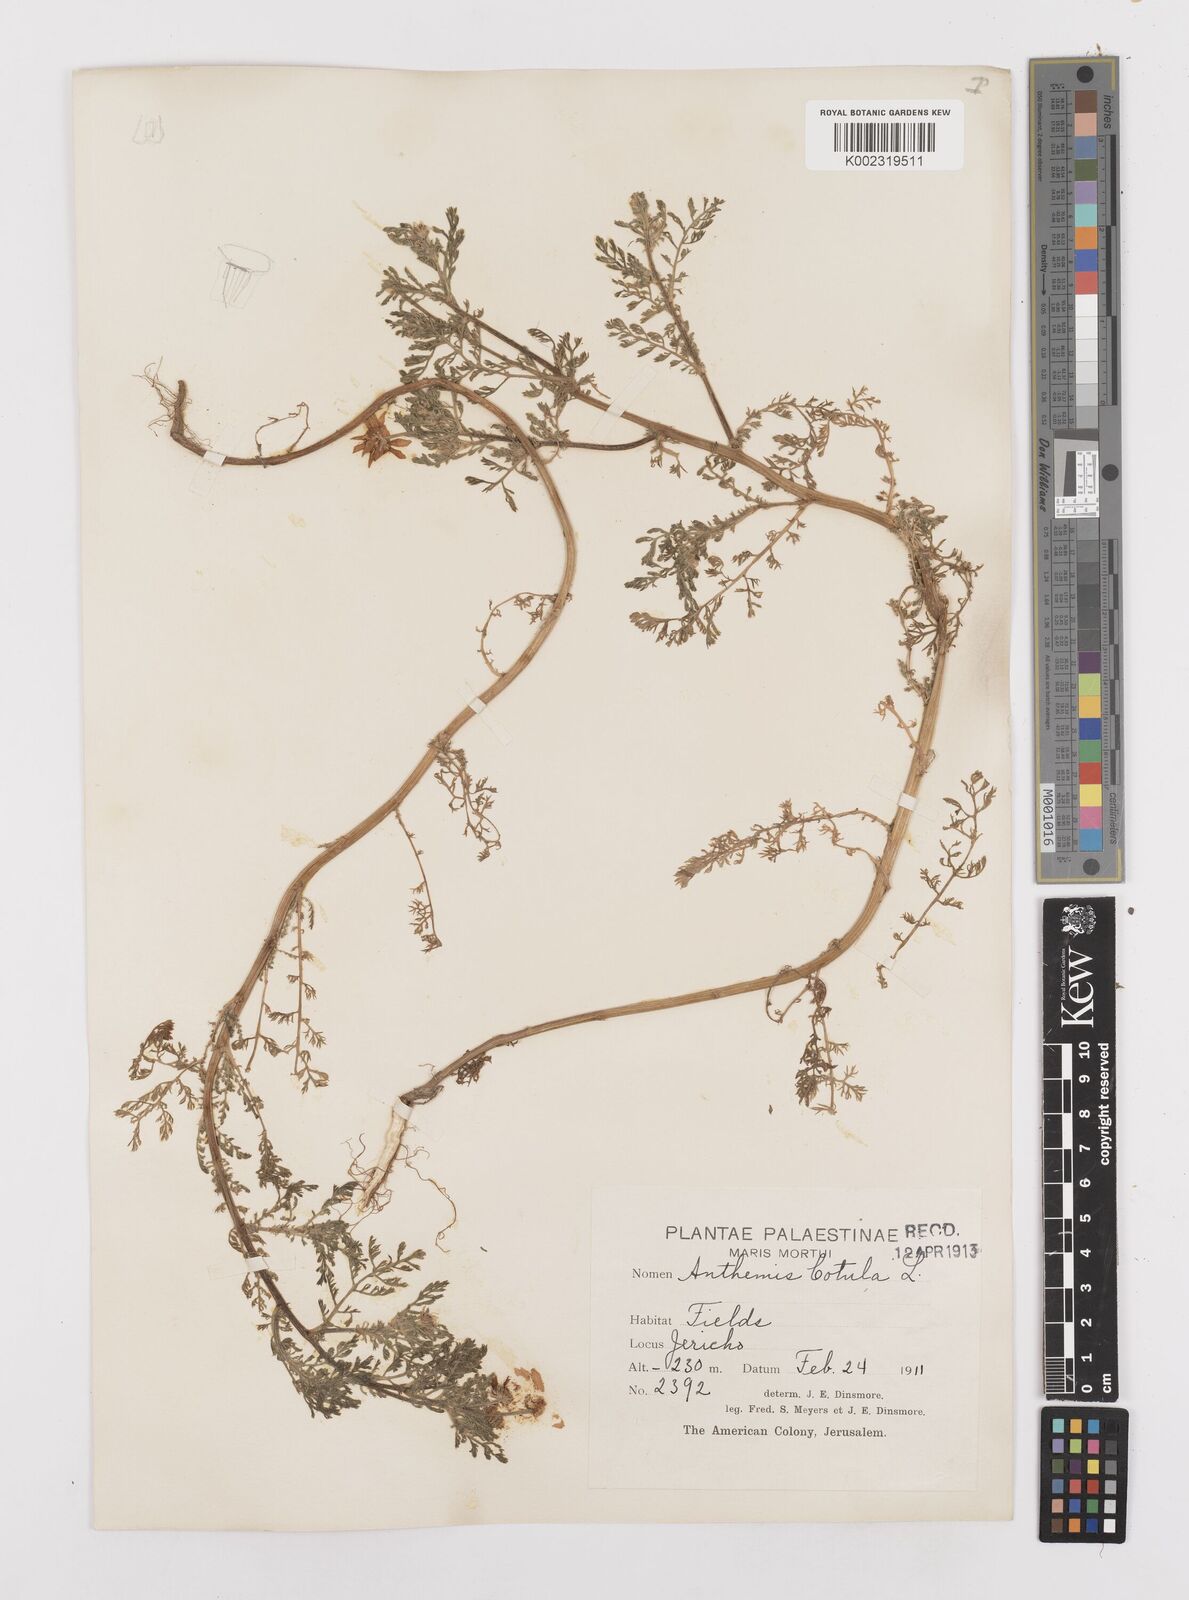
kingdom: Plantae
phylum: Tracheophyta
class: Magnoliopsida
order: Asterales
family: Asteraceae
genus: Anacyclus
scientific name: Anacyclus clavatus
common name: Whitebuttons
